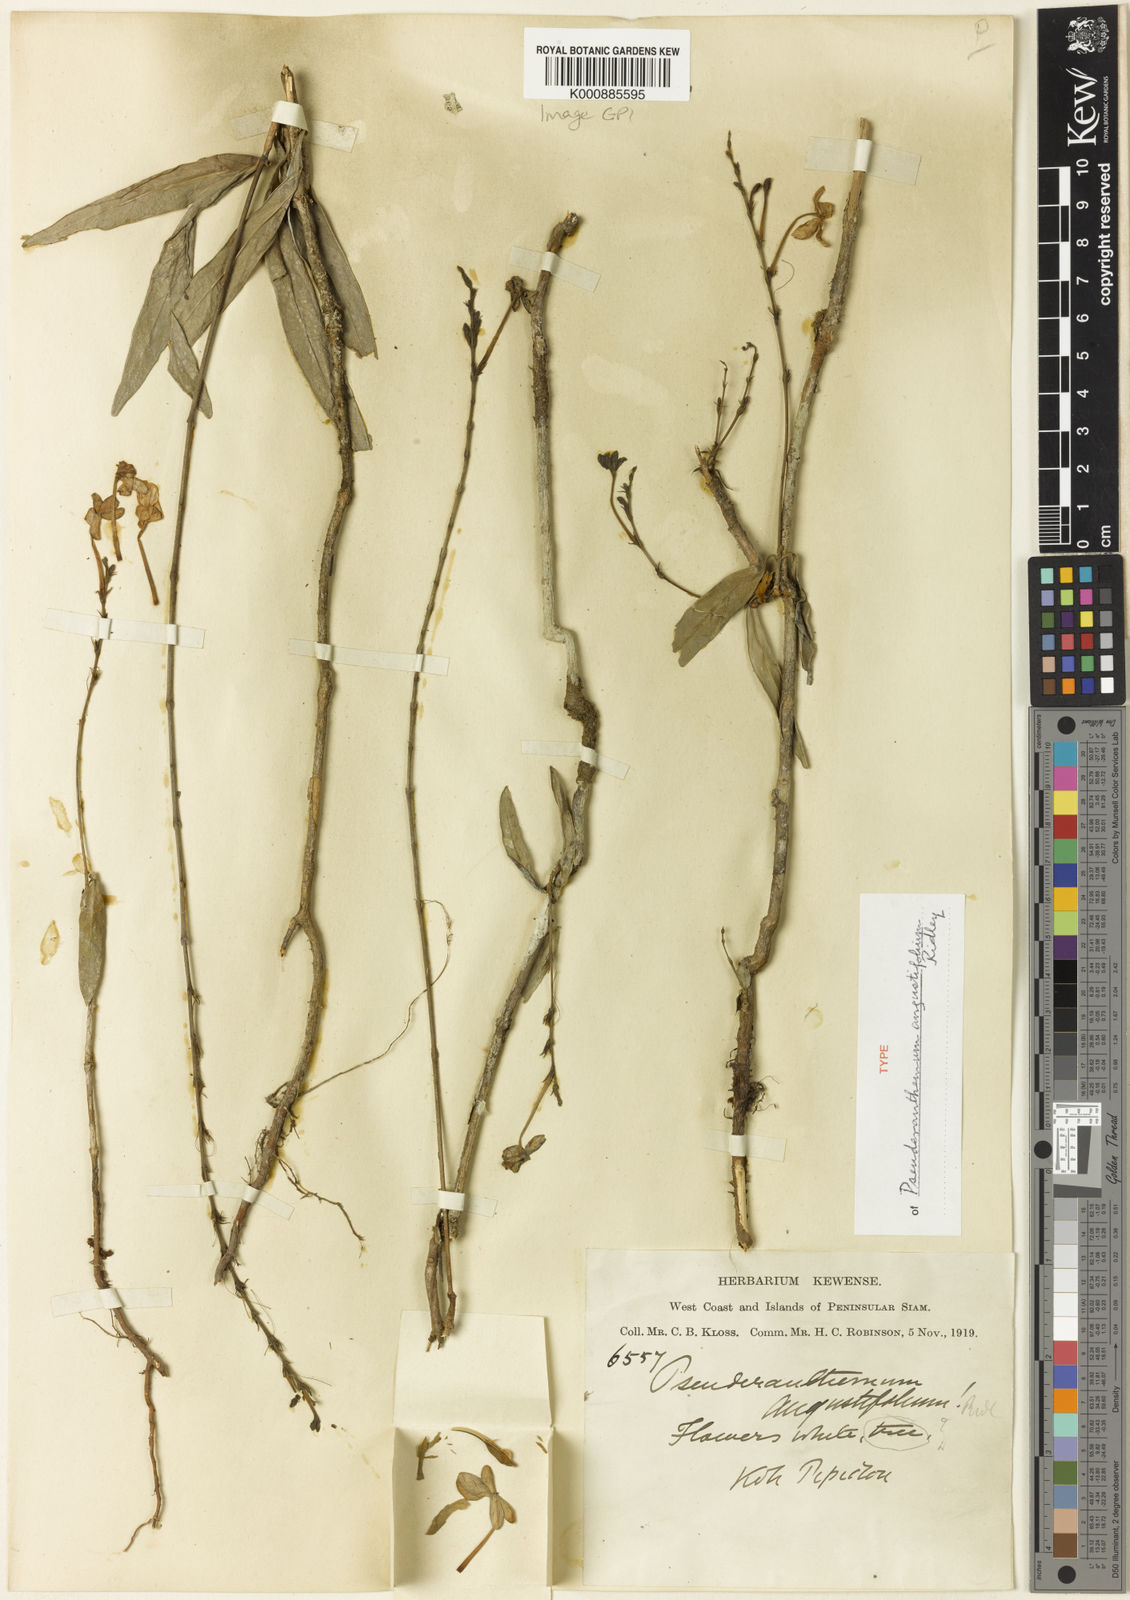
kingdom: Plantae
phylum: Tracheophyta
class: Magnoliopsida
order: Lamiales
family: Acanthaceae
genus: Pseuderanthemum
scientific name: Pseuderanthemum
